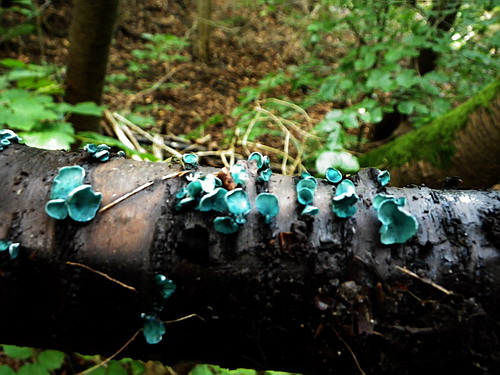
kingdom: Fungi
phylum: Ascomycota
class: Leotiomycetes
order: Helotiales
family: Chlorociboriaceae
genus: Chlorociboria
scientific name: Chlorociboria aeruginascens
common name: almindelig grønskive
